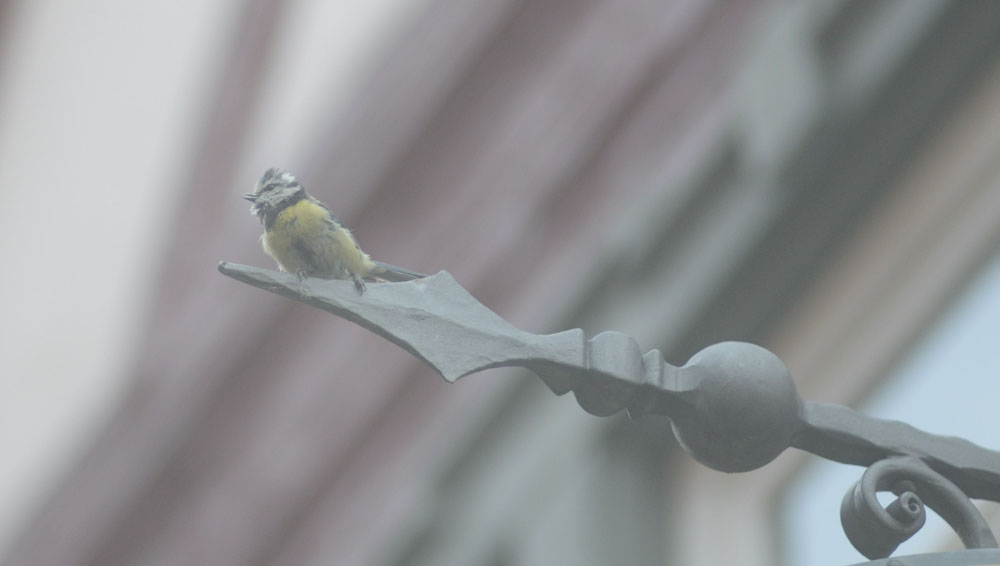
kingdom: Animalia
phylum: Chordata
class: Aves
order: Passeriformes
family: Paridae
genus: Cyanistes
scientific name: Cyanistes caeruleus
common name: Eurasian blue tit
